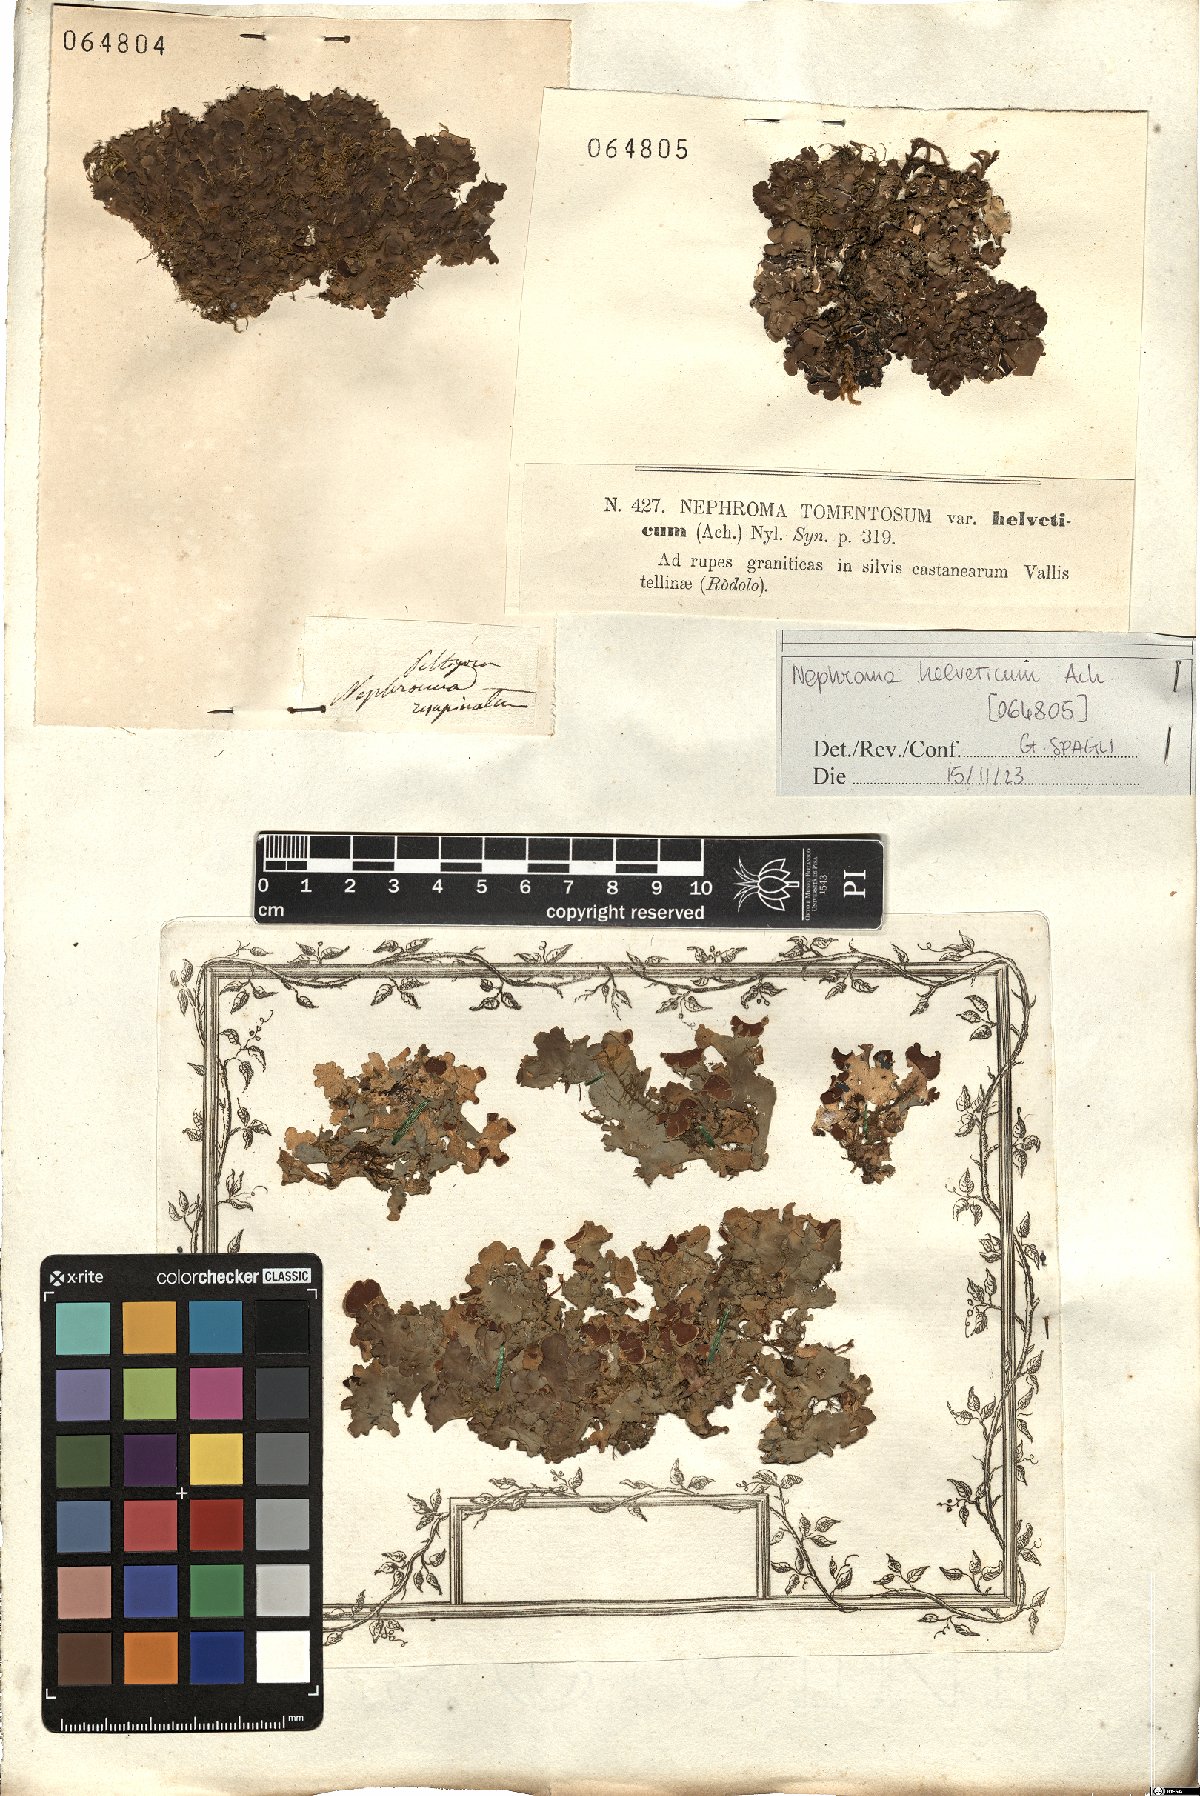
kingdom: Fungi
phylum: Ascomycota
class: Lecanoromycetes
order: Peltigerales
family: Nephromataceae
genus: Nephroma
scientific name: Nephroma resupinatum
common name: Pimpled kidney lichen
